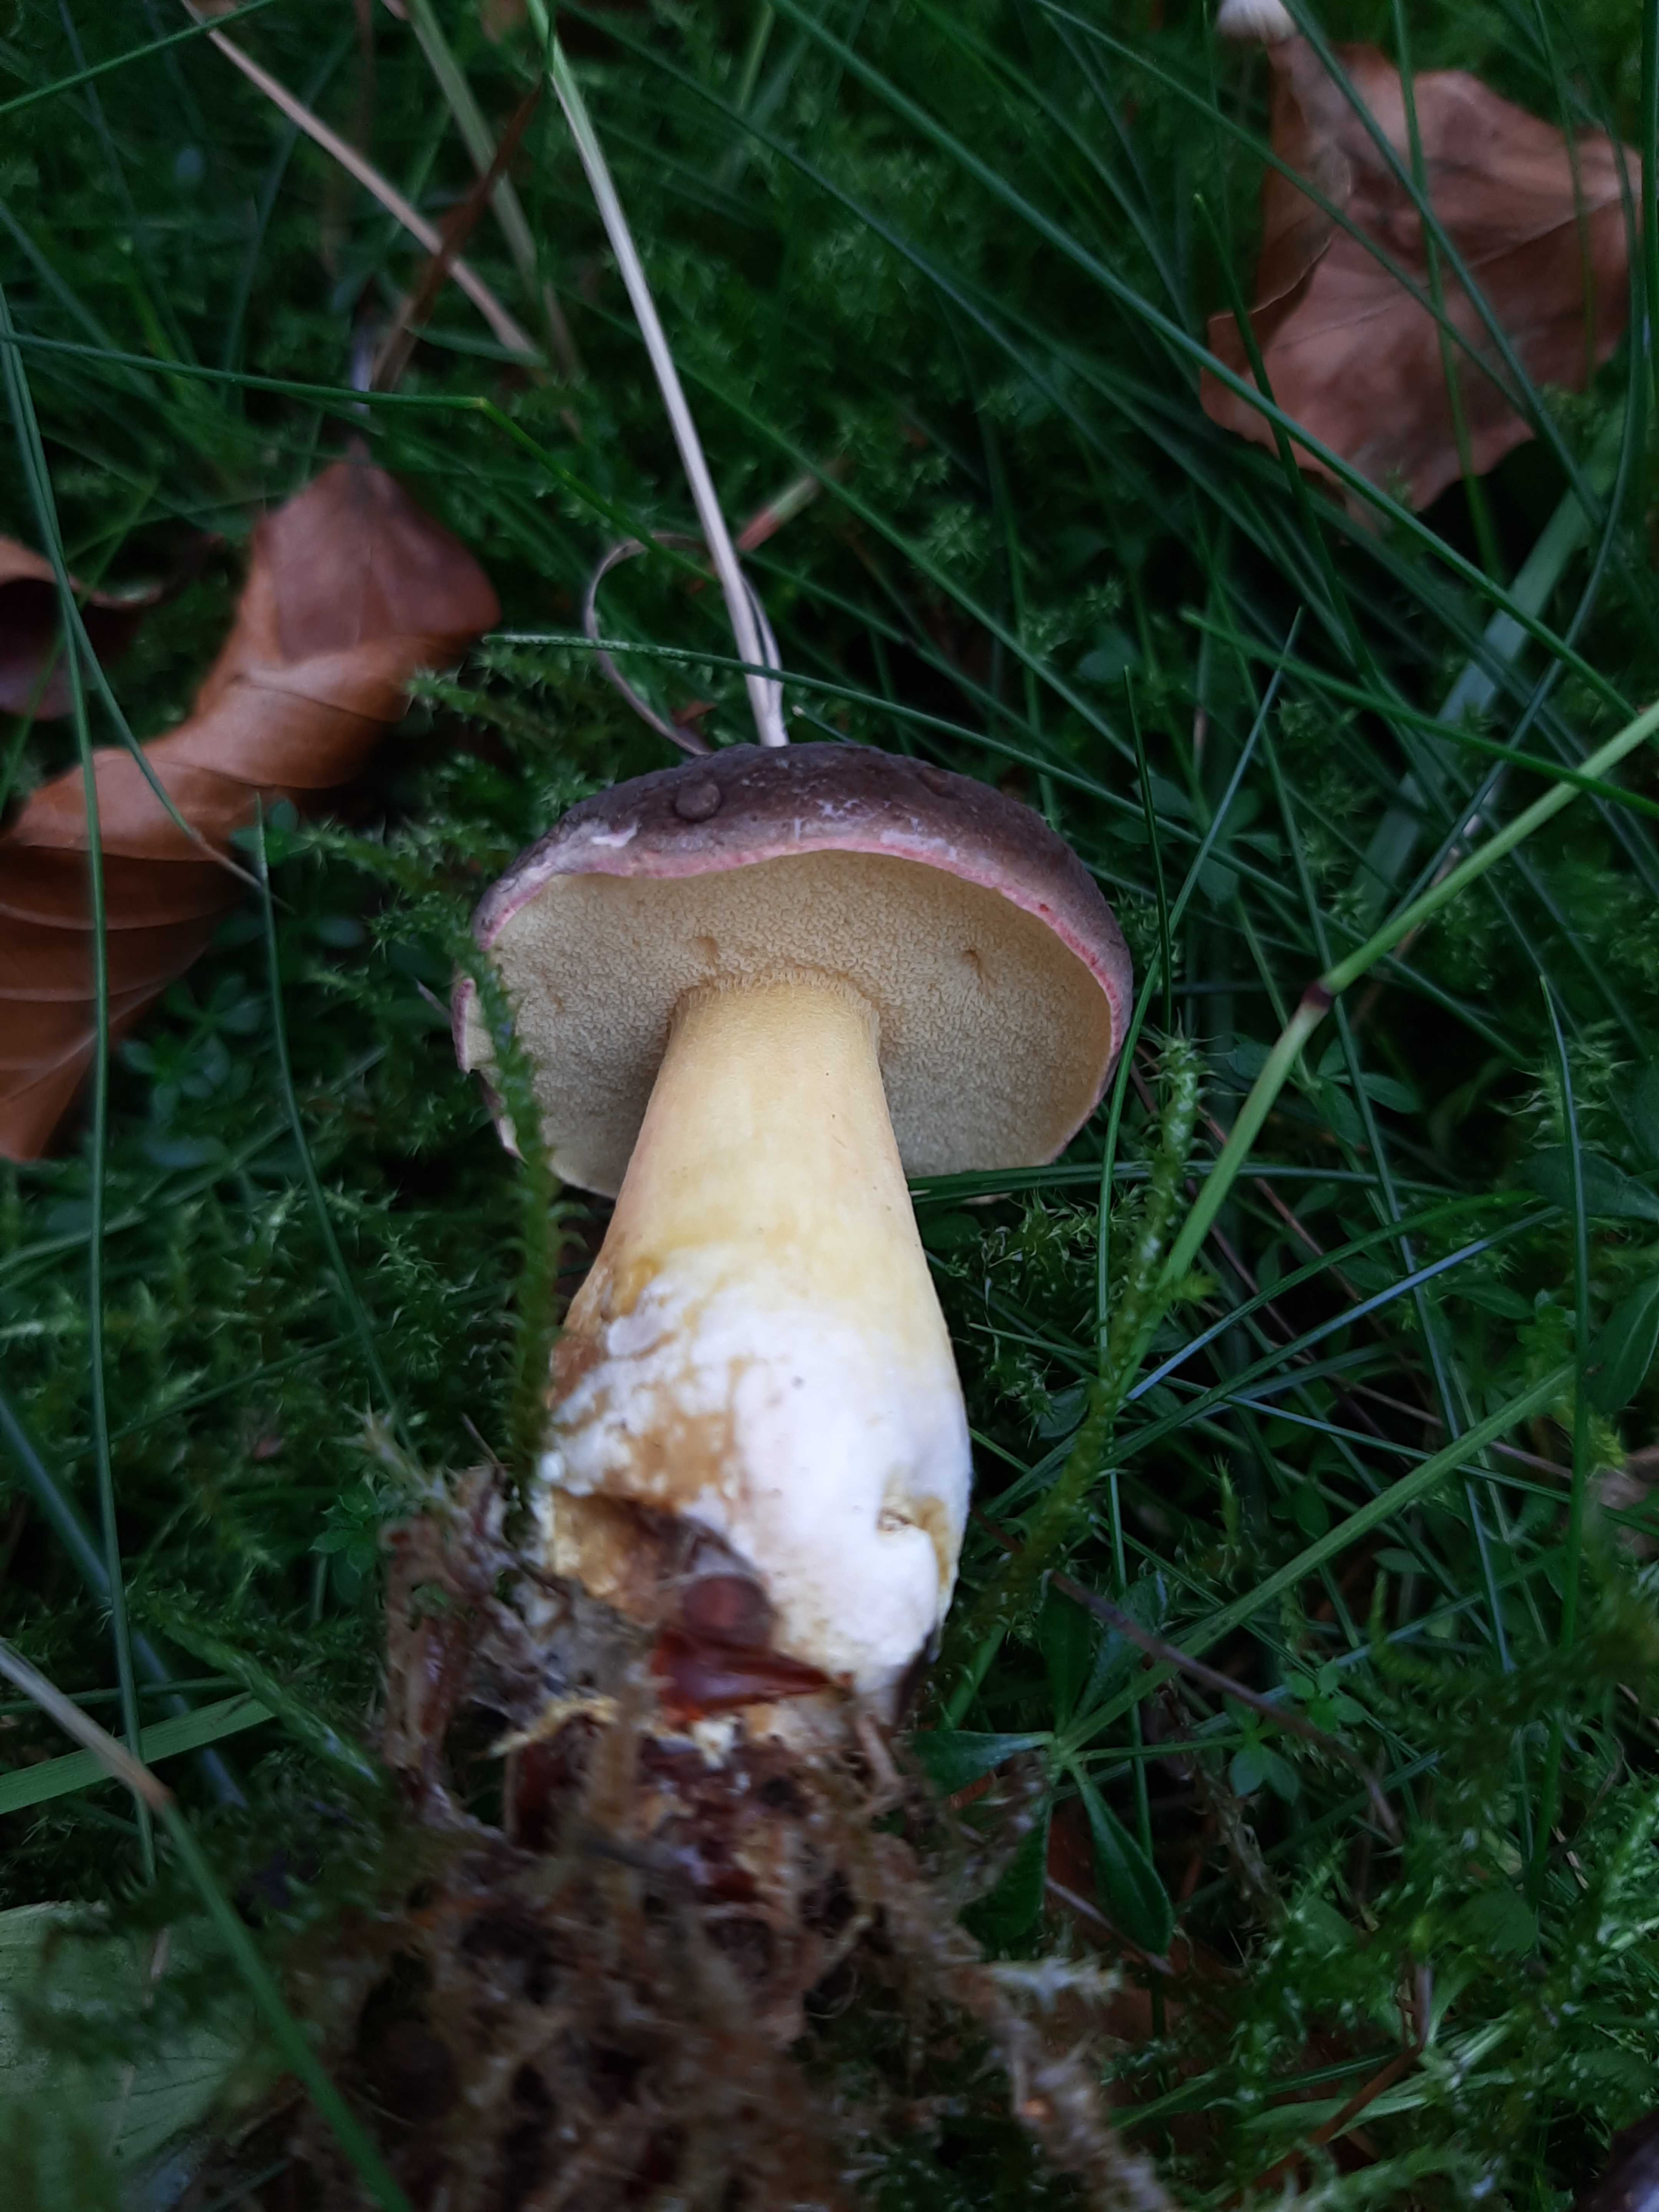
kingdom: Fungi
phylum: Basidiomycota
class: Agaricomycetes
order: Boletales
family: Boletaceae
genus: Xerocomellus
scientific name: Xerocomellus pruinatus
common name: dugget rørhat
